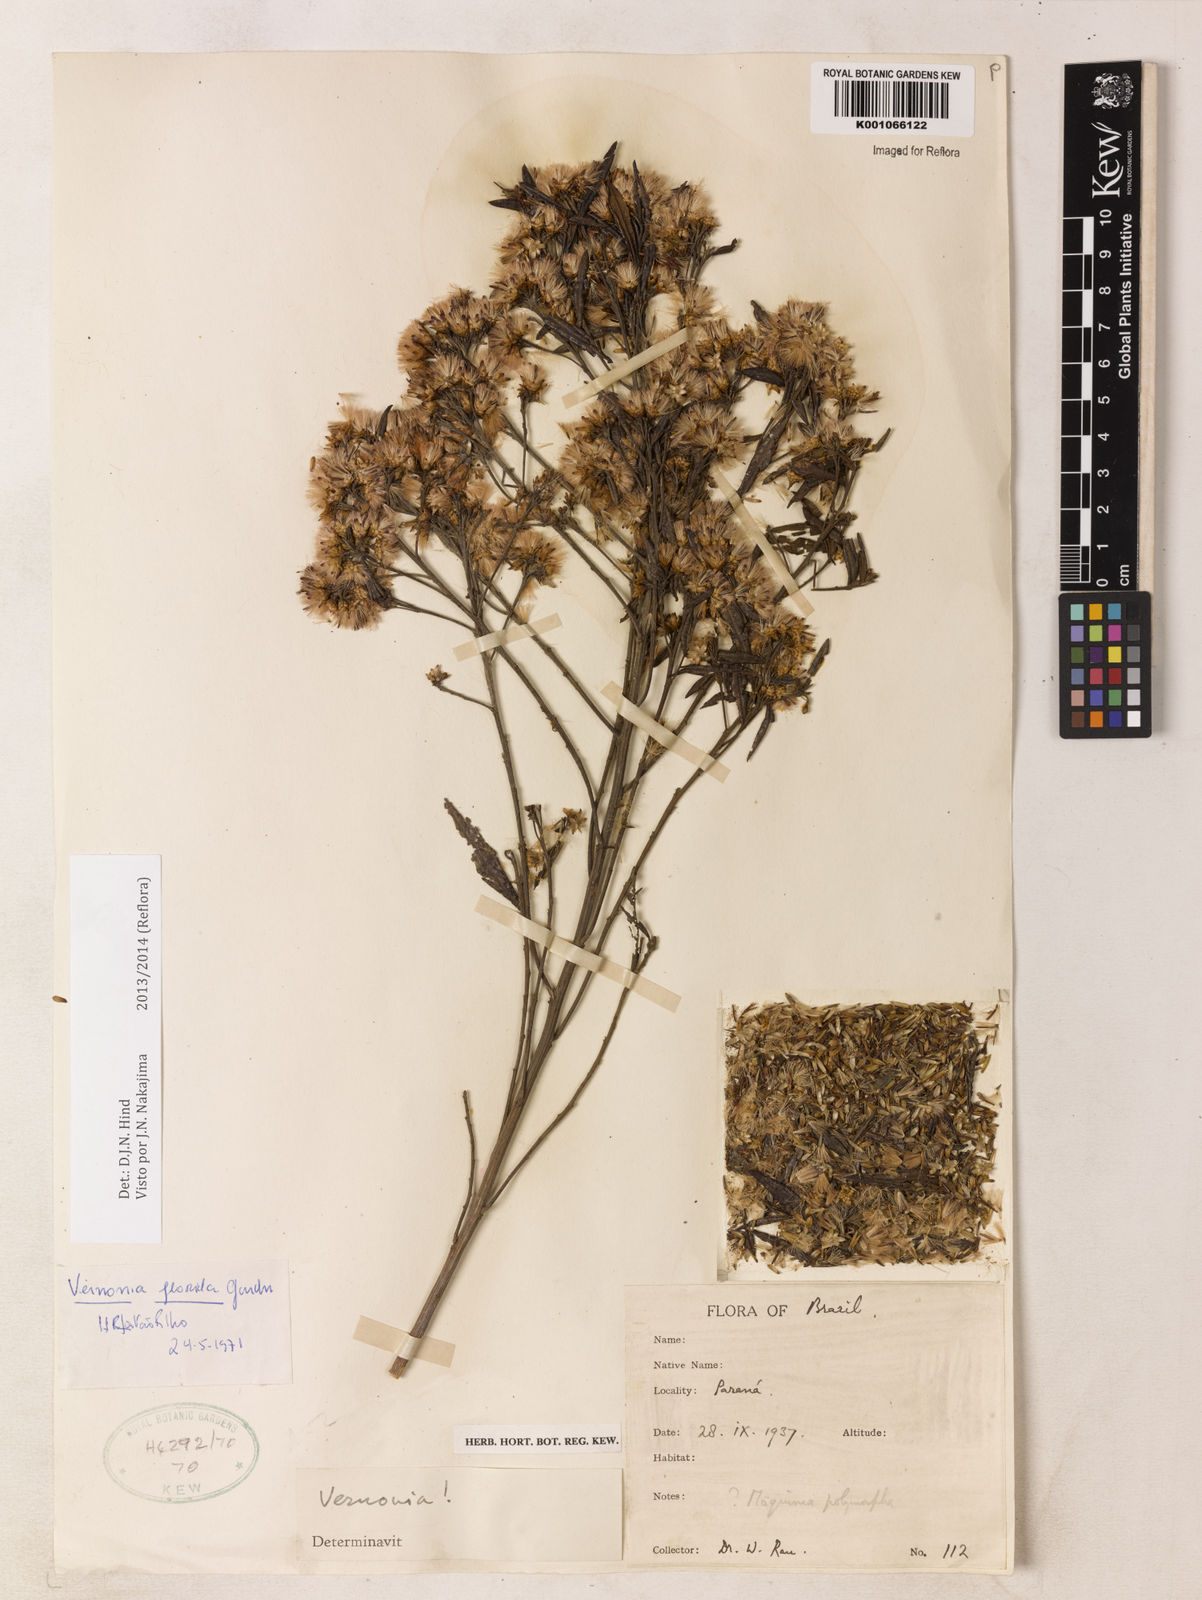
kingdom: Plantae
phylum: Tracheophyta
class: Magnoliopsida
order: Asterales
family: Asteraceae
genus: Vernonanthura
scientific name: Vernonanthura montevidensis
